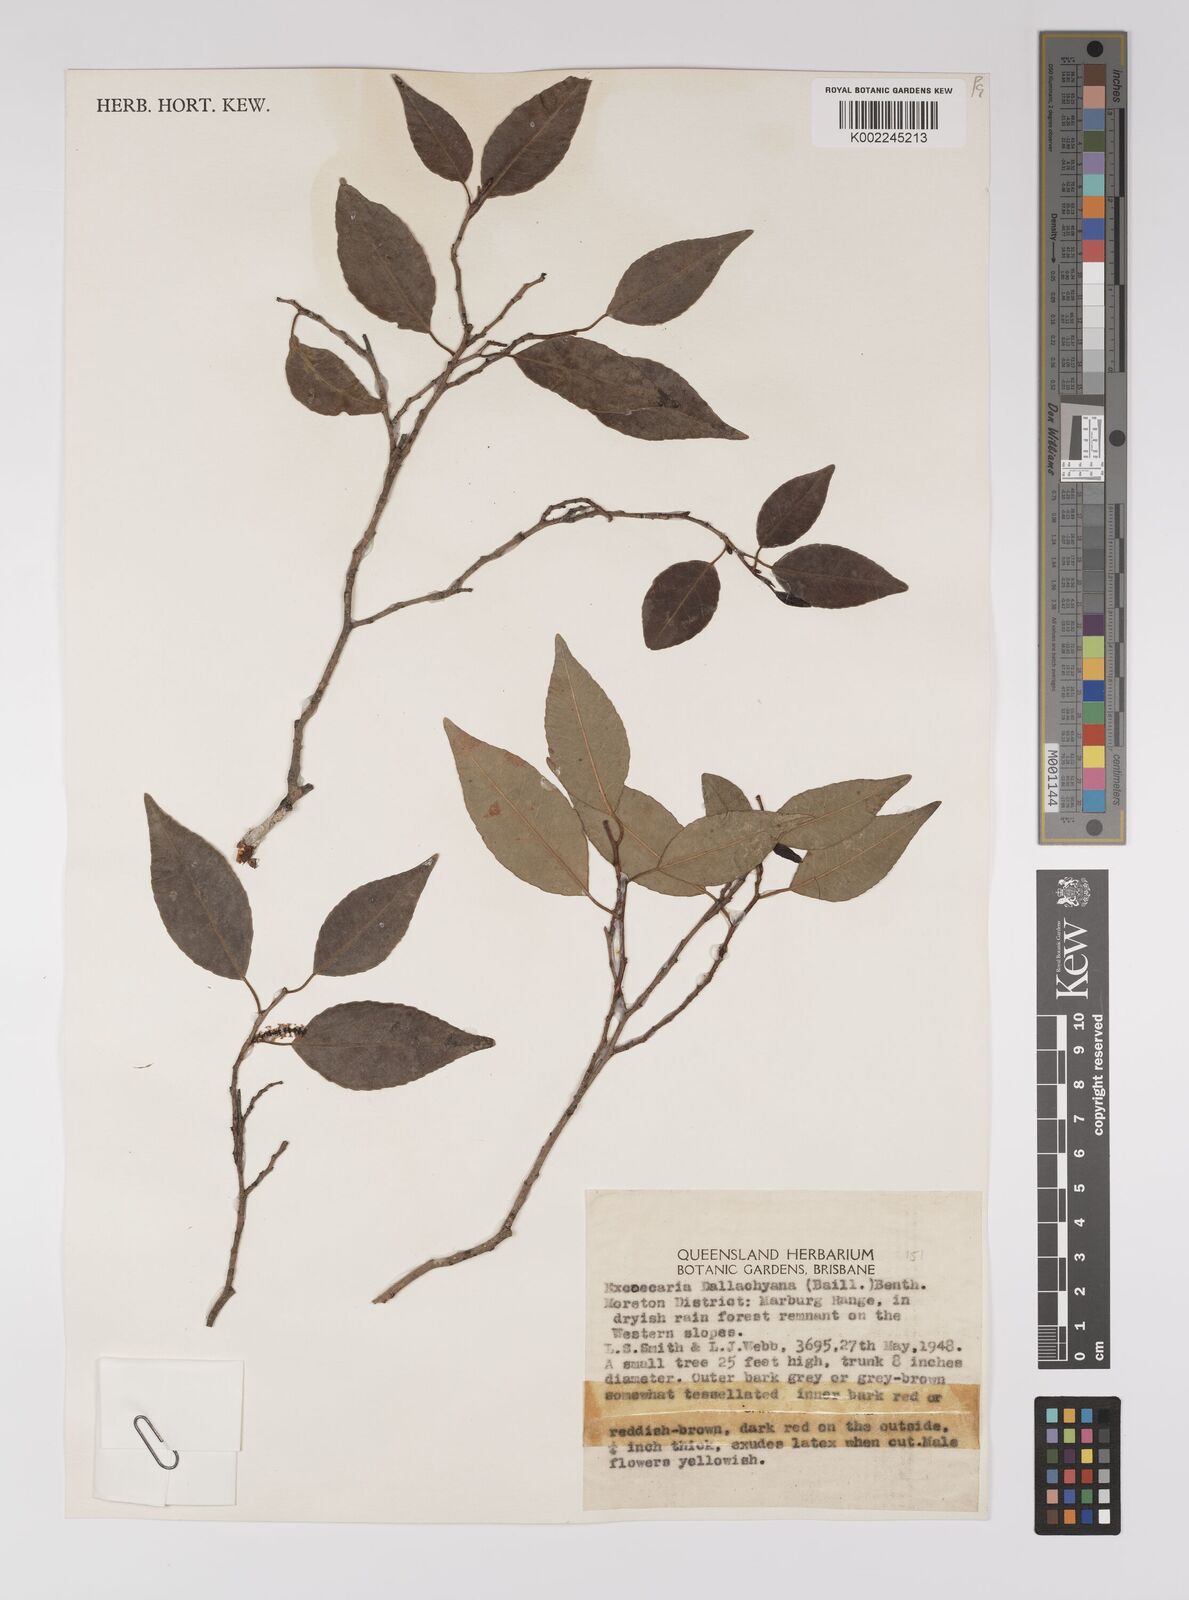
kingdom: Plantae
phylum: Tracheophyta
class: Magnoliopsida
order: Malpighiales
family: Euphorbiaceae
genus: Excoecaria
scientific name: Excoecaria dallachyana
